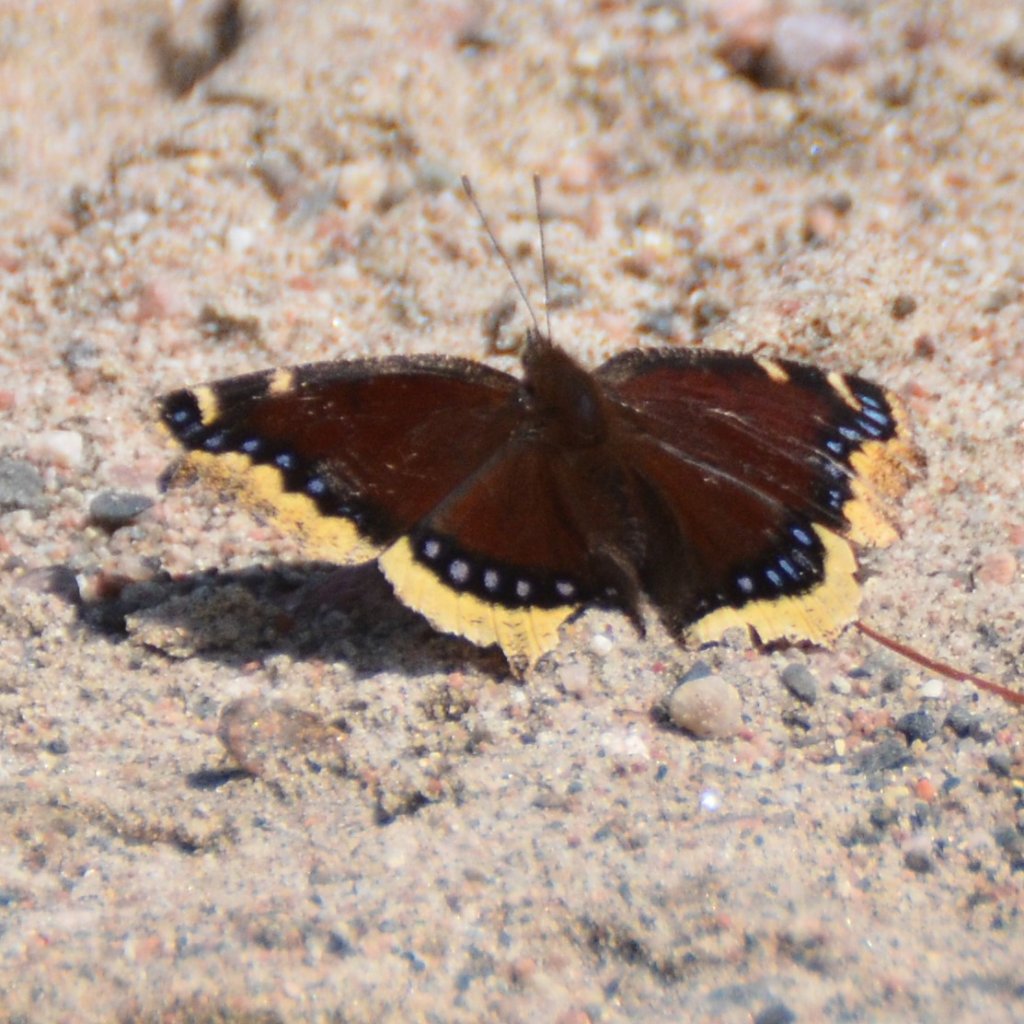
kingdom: Animalia
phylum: Arthropoda
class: Insecta
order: Lepidoptera
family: Nymphalidae
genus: Nymphalis
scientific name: Nymphalis antiopa
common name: Mourning Cloak
